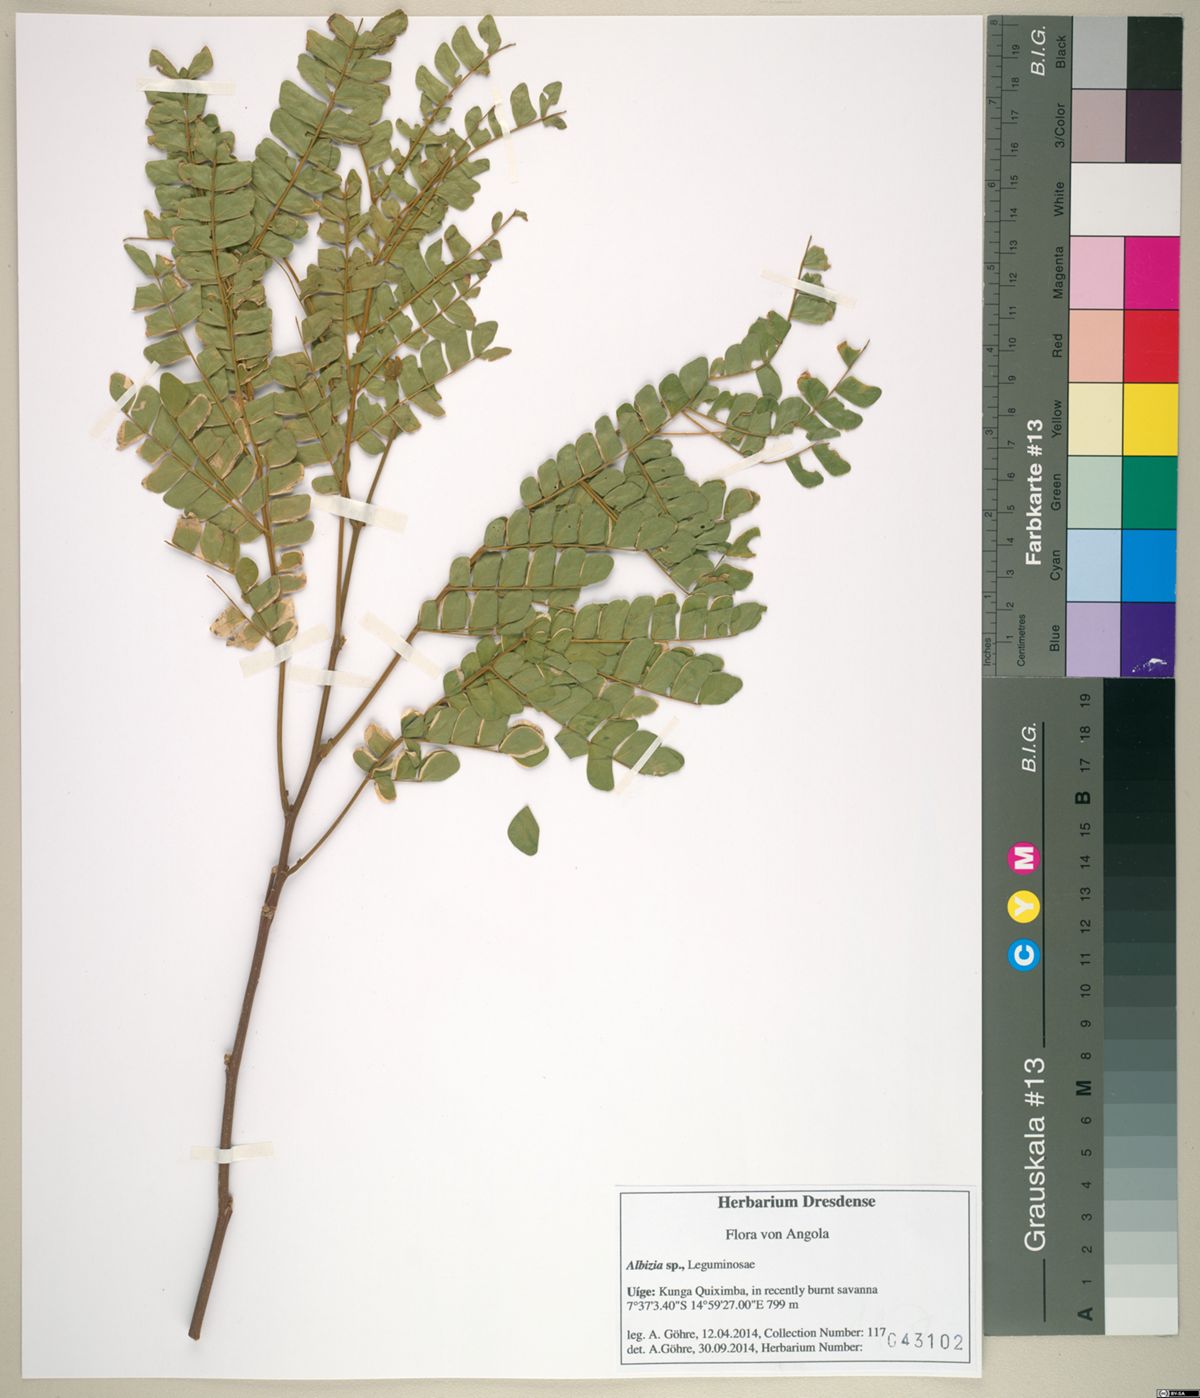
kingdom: Plantae
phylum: Tracheophyta
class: Magnoliopsida
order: Fabales
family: Fabaceae
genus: Albizia
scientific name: Albizia adianthifolia
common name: West african albizia
